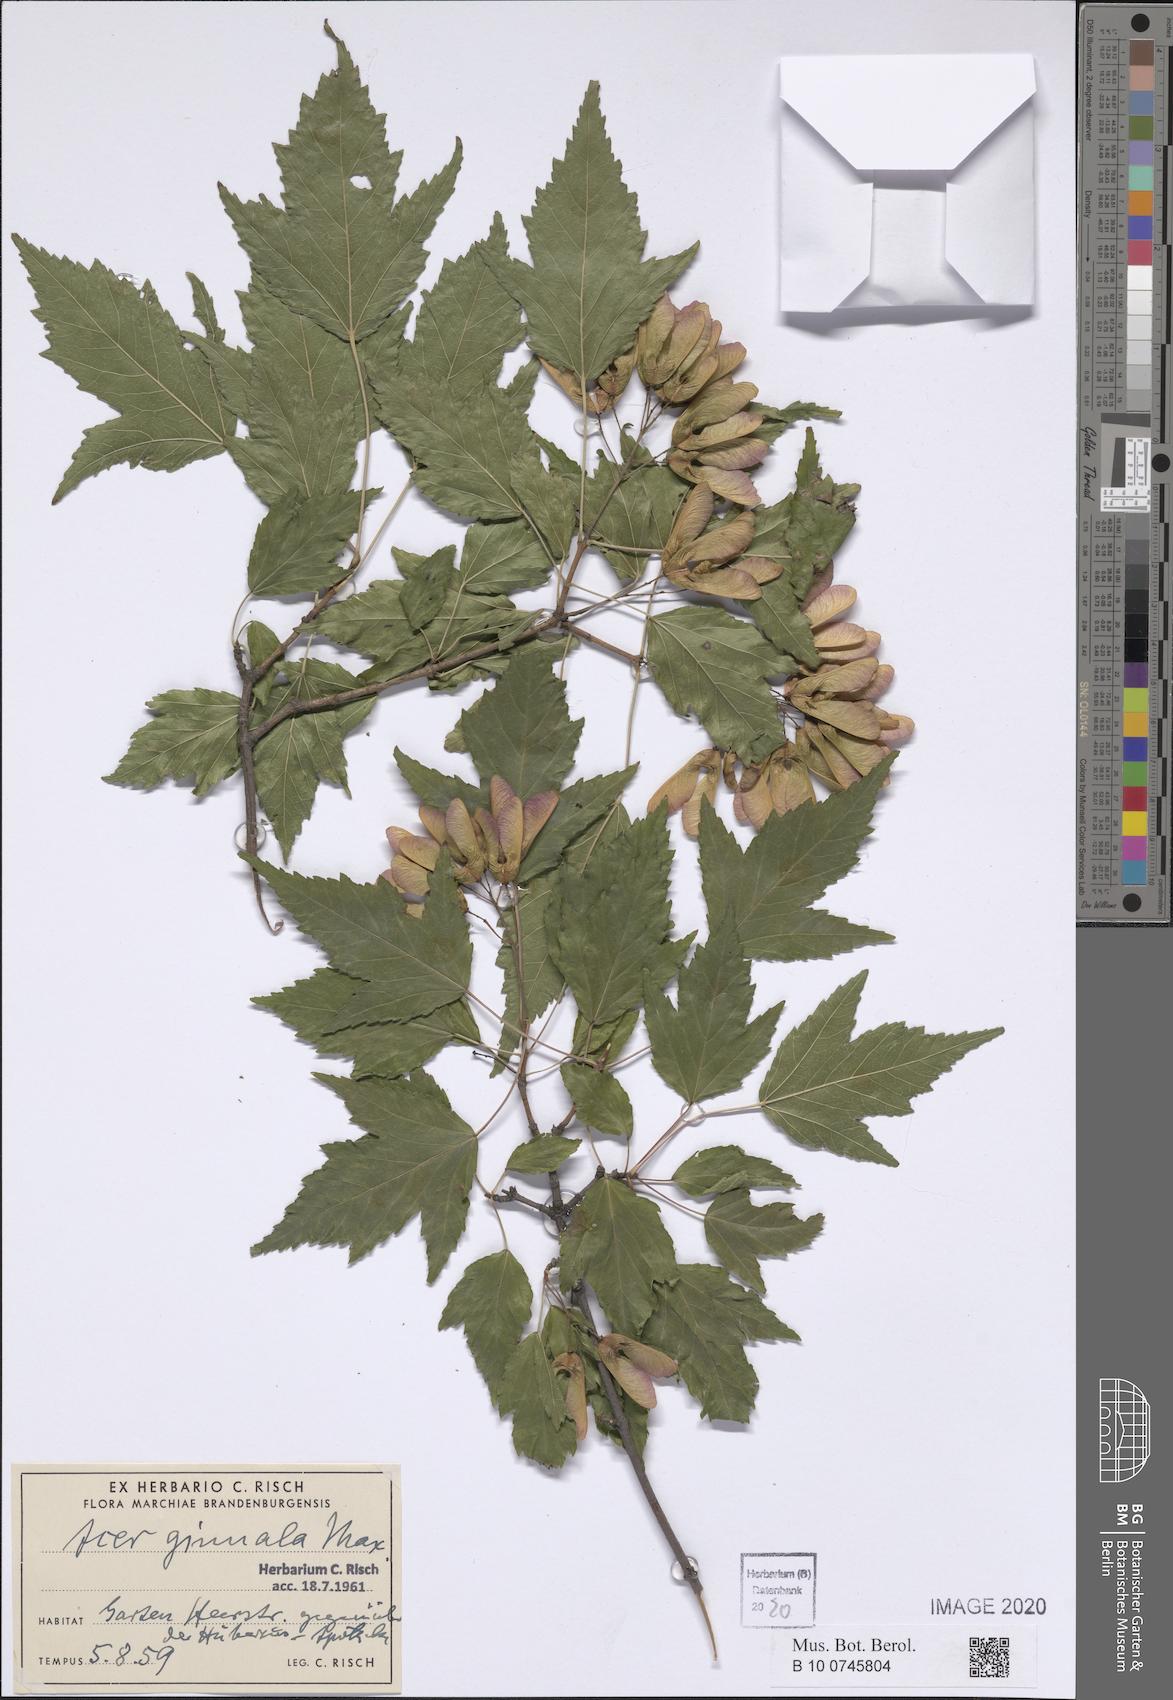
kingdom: Plantae
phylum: Tracheophyta
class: Magnoliopsida
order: Sapindales
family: Sapindaceae
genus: Acer
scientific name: Acer tataricum
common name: Tartar maple
